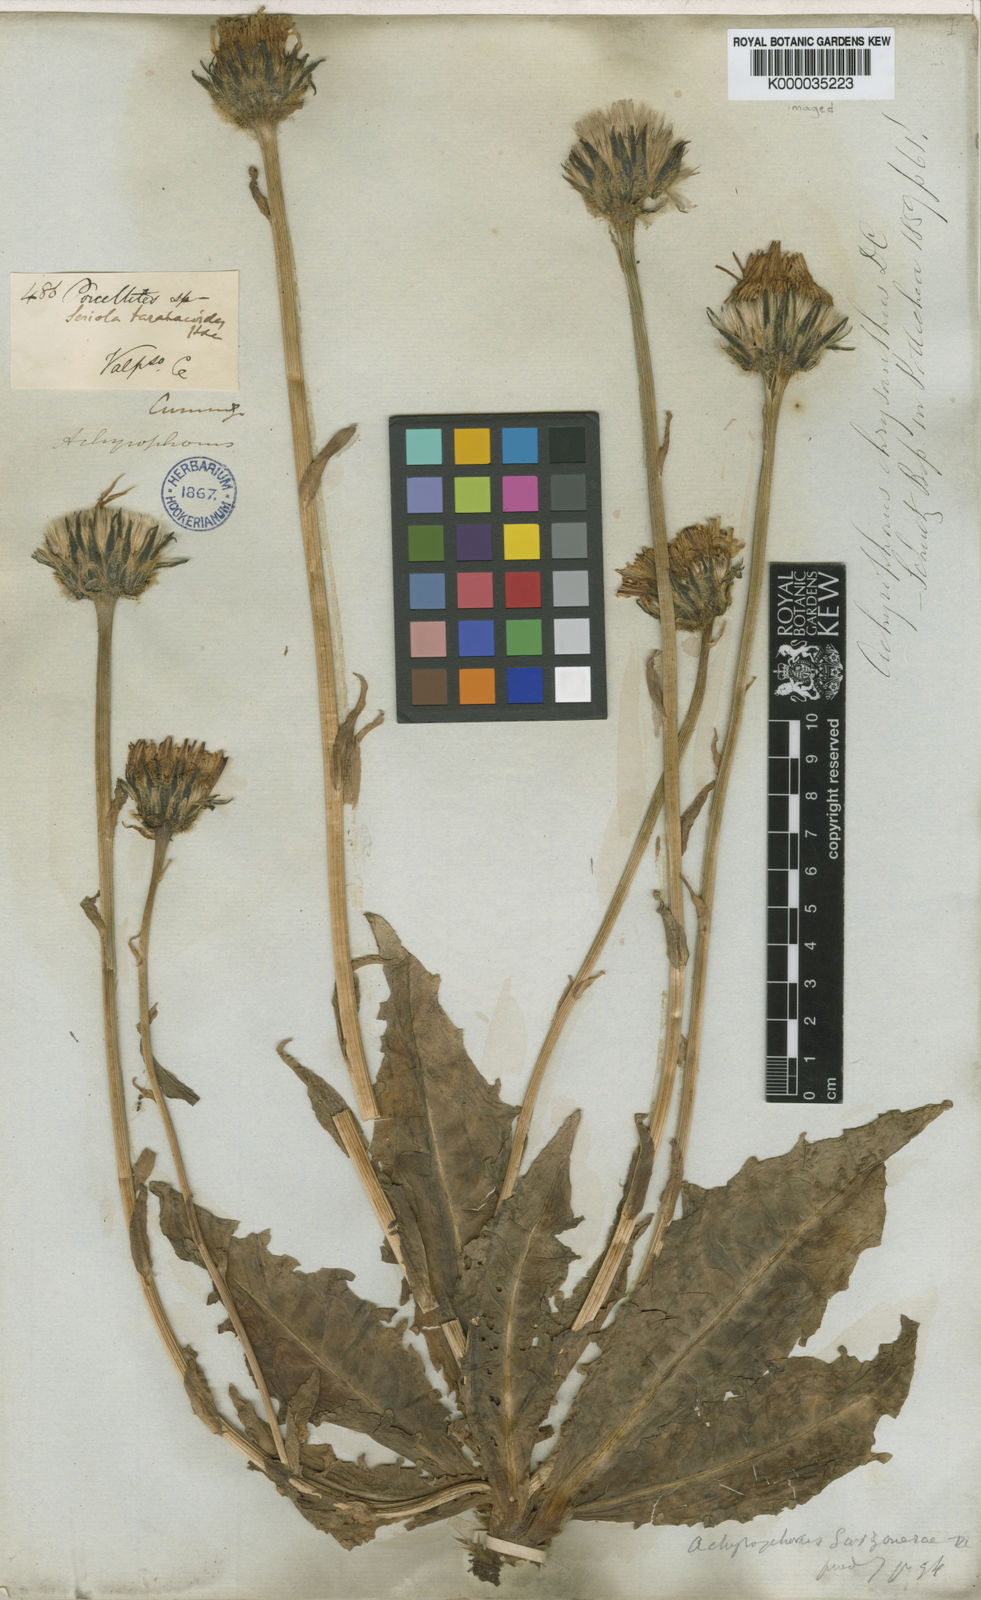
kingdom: Plantae
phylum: Tracheophyta
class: Magnoliopsida
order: Asterales
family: Asteraceae
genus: Hypochaeris
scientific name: Hypochaeris scorzonerae
